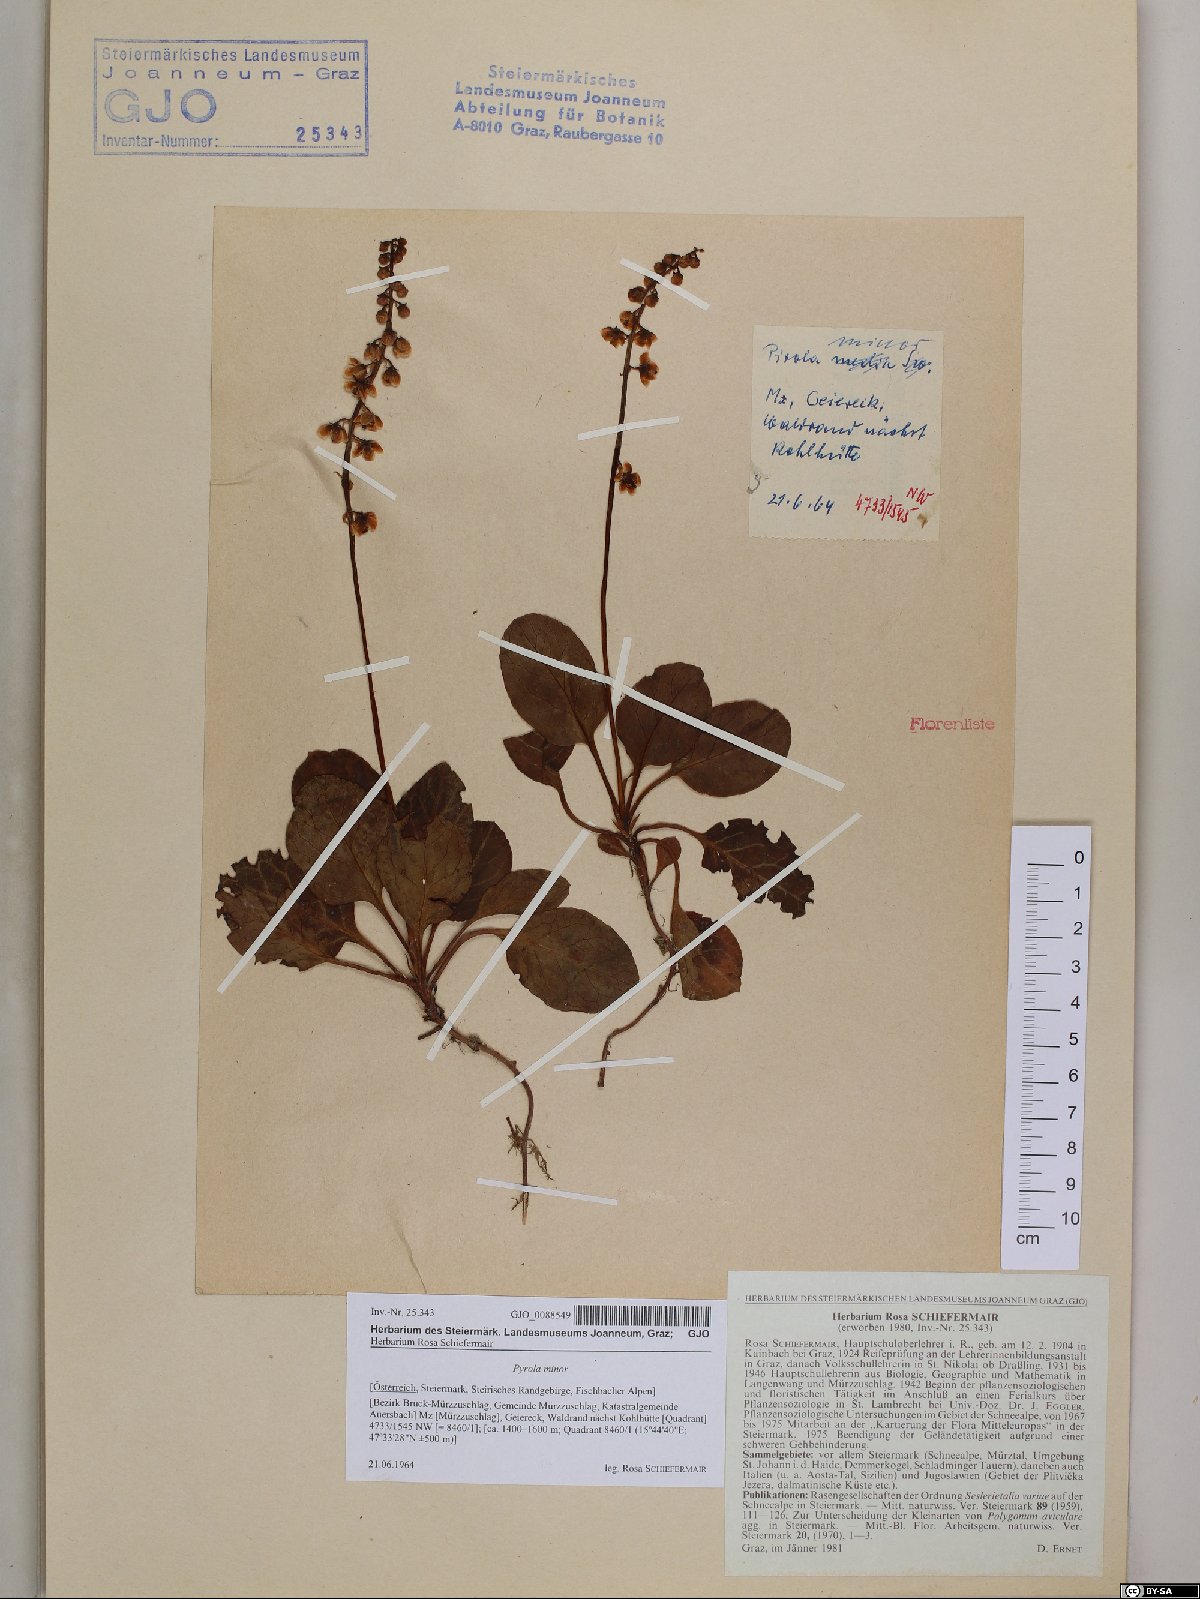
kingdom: Plantae
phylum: Tracheophyta
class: Magnoliopsida
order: Ericales
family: Ericaceae
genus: Pyrola
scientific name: Pyrola minor
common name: Common wintergreen
